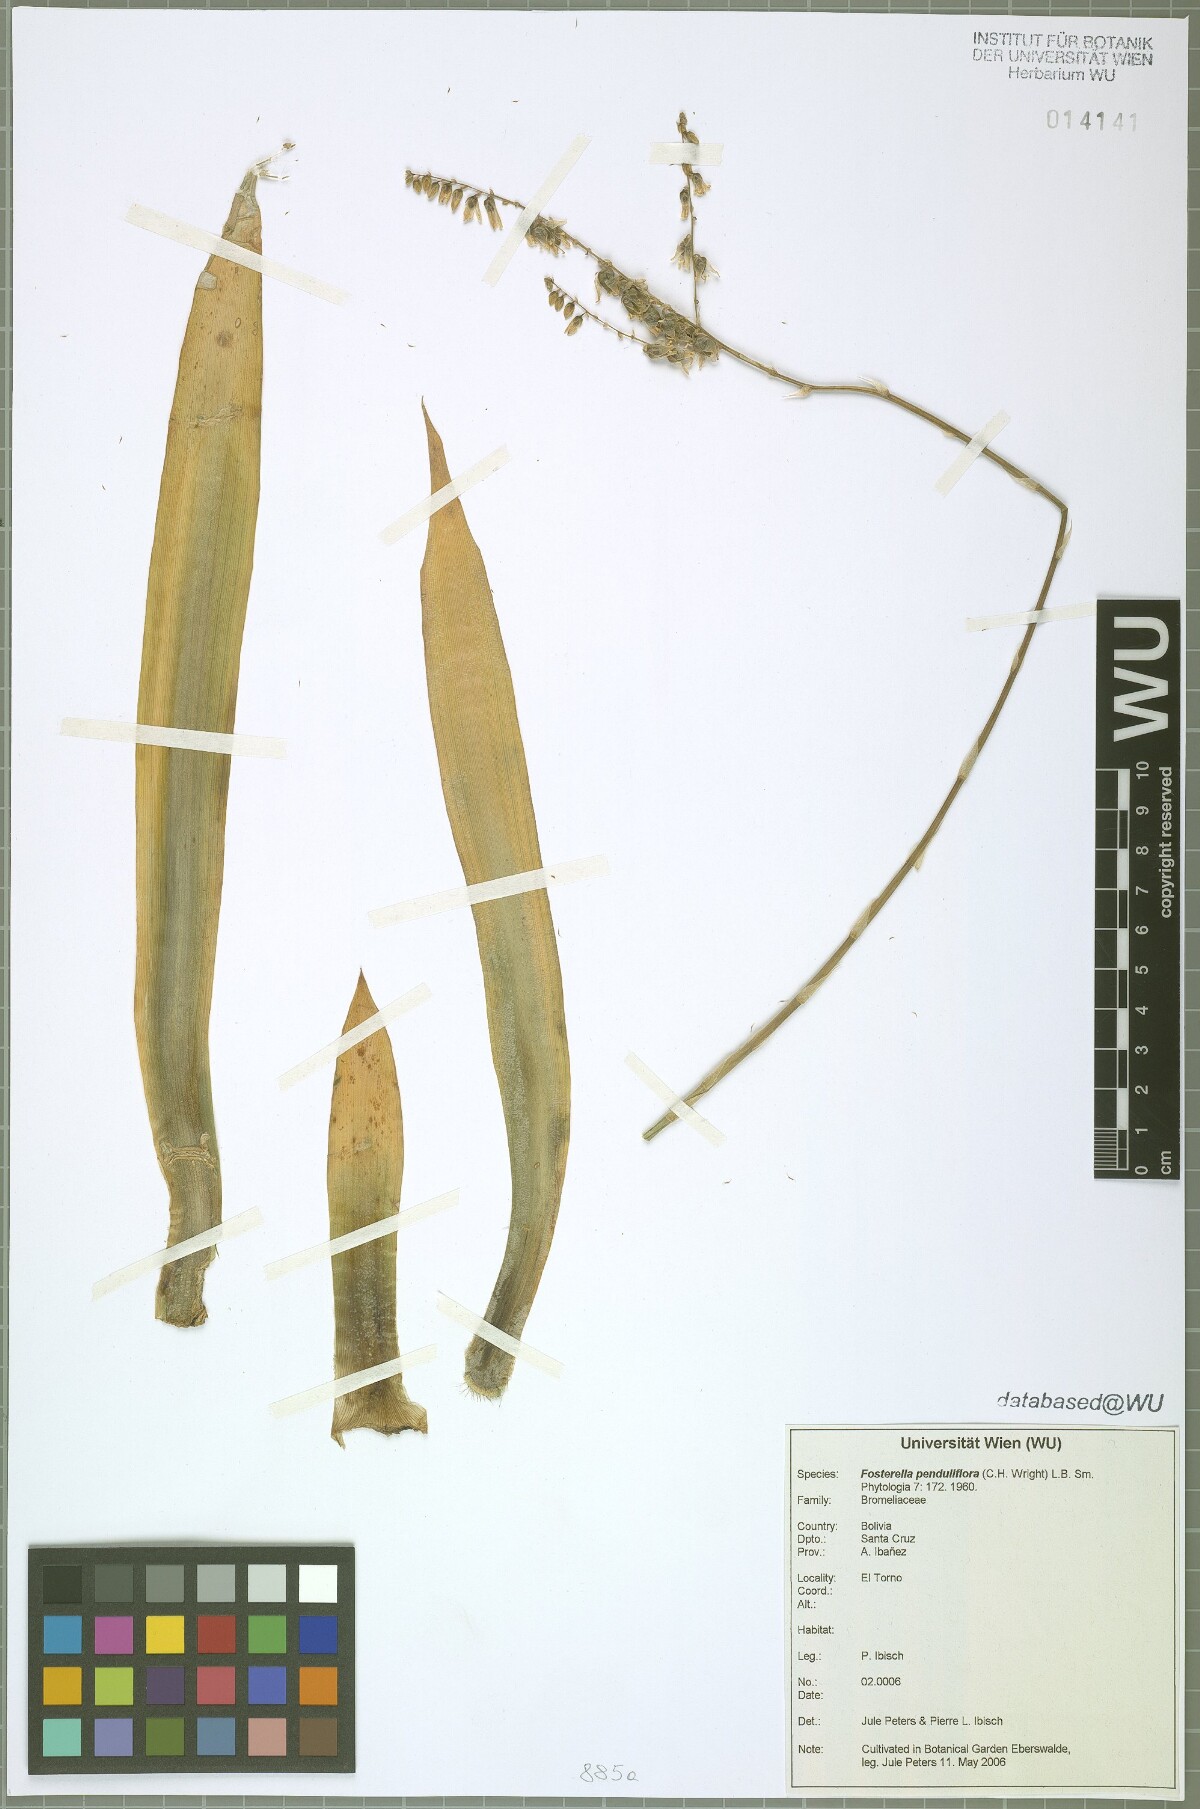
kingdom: Plantae
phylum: Tracheophyta
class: Liliopsida
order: Poales
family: Bromeliaceae
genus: Fosterella
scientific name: Fosterella penduliflora
